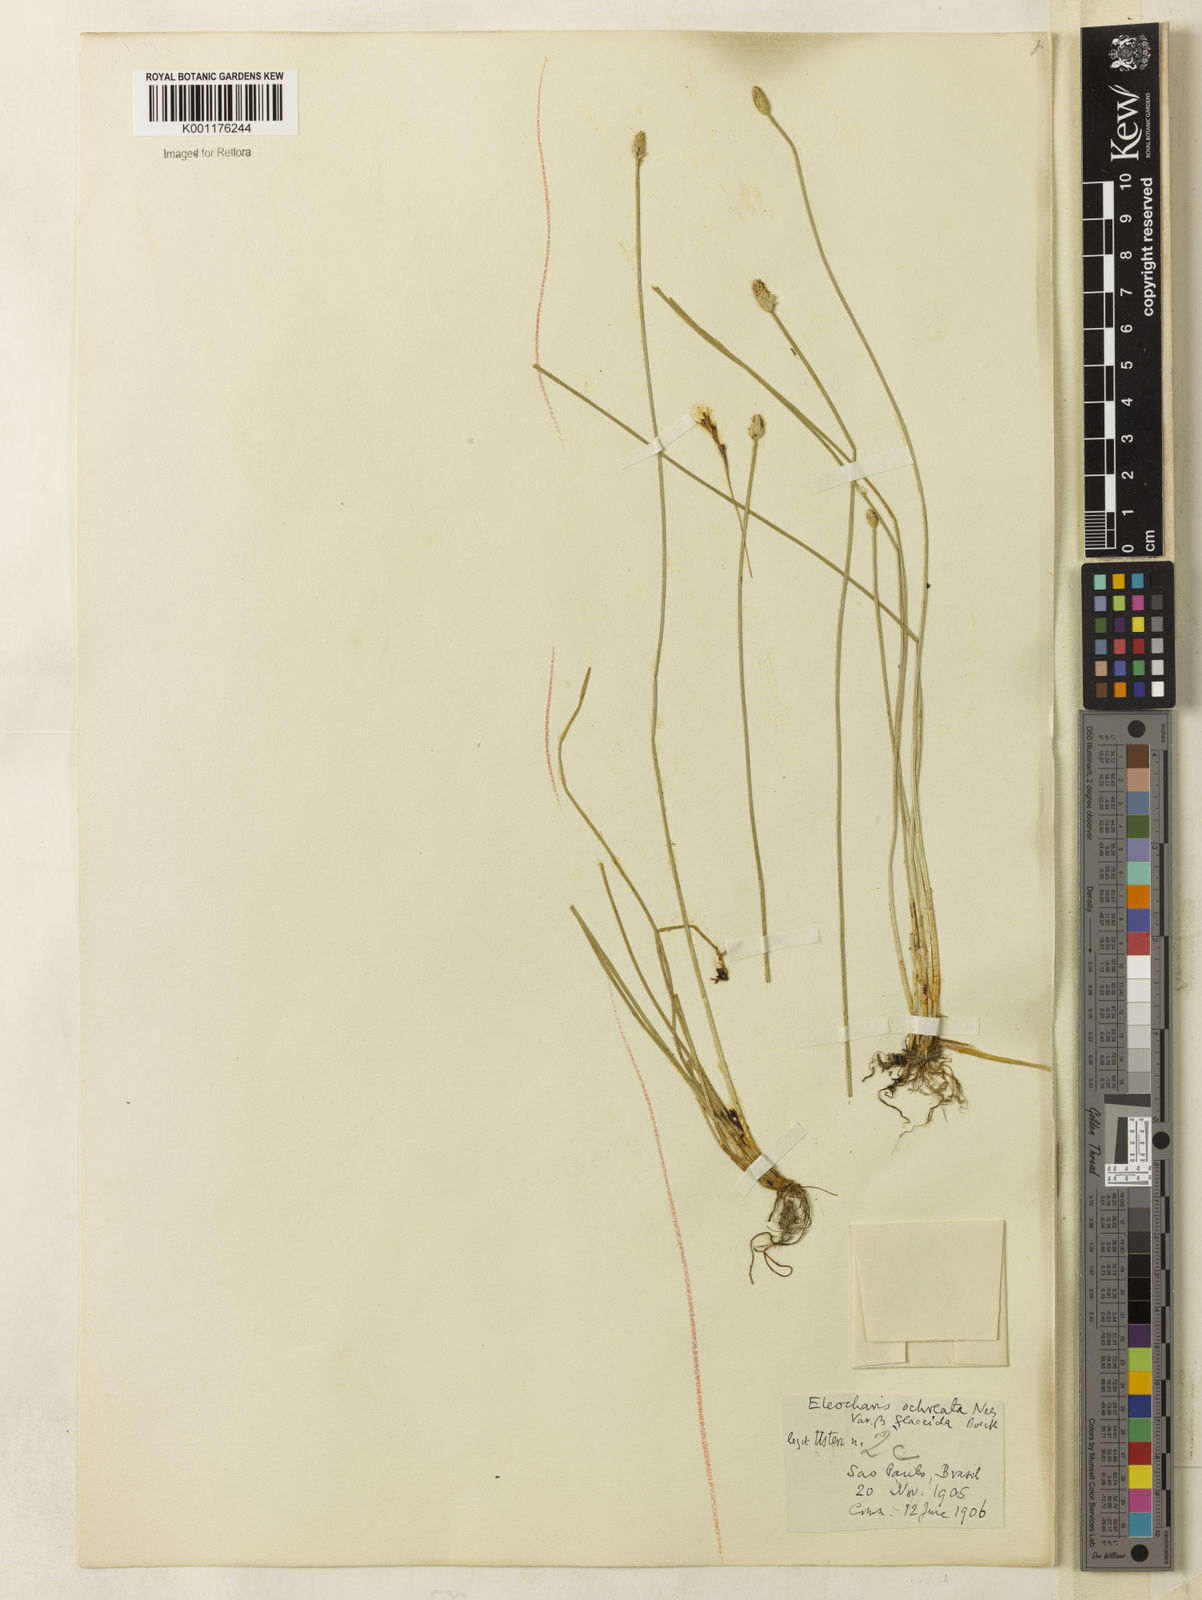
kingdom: Plantae
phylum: Tracheophyta
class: Liliopsida
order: Poales
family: Cyperaceae
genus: Eleocharis
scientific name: Eleocharis flavescens
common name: Yellow spikerush
